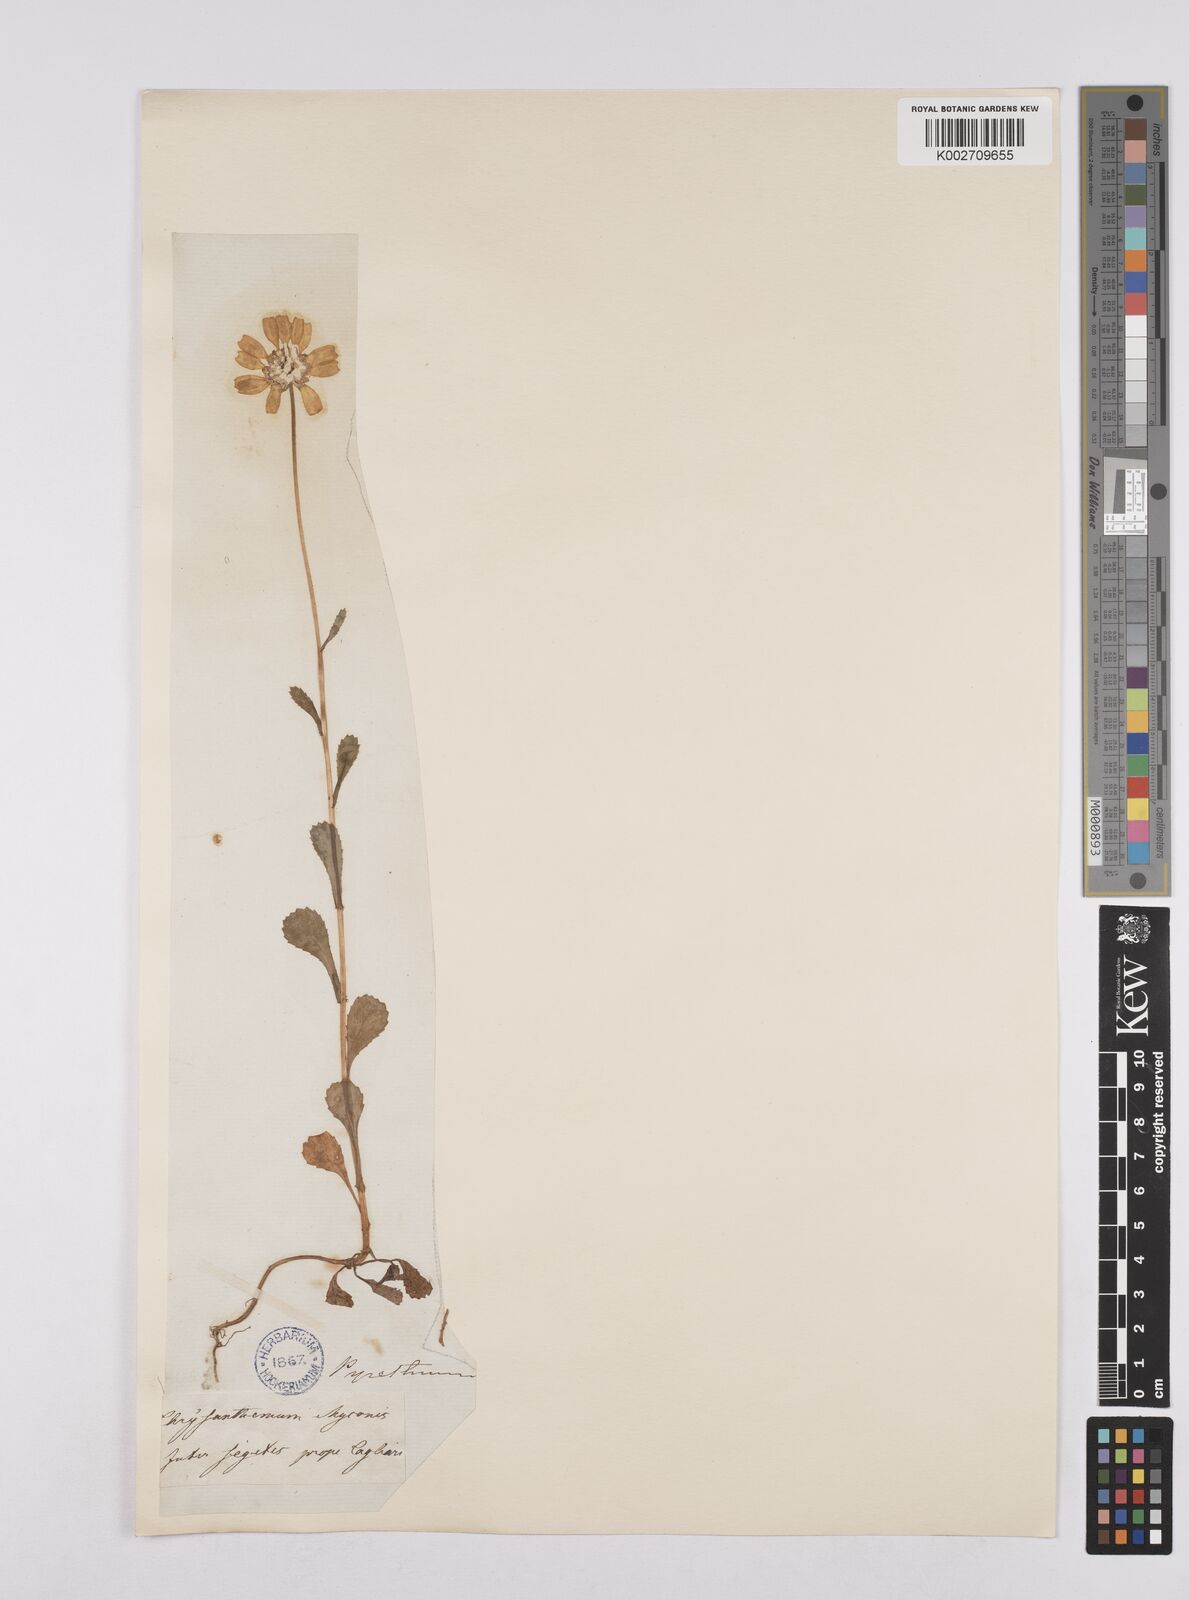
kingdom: Plantae
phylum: Tracheophyta
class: Magnoliopsida
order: Asterales
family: Asteraceae
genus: Coleostephus
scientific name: Coleostephus myconis
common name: Mediterranean marigold
